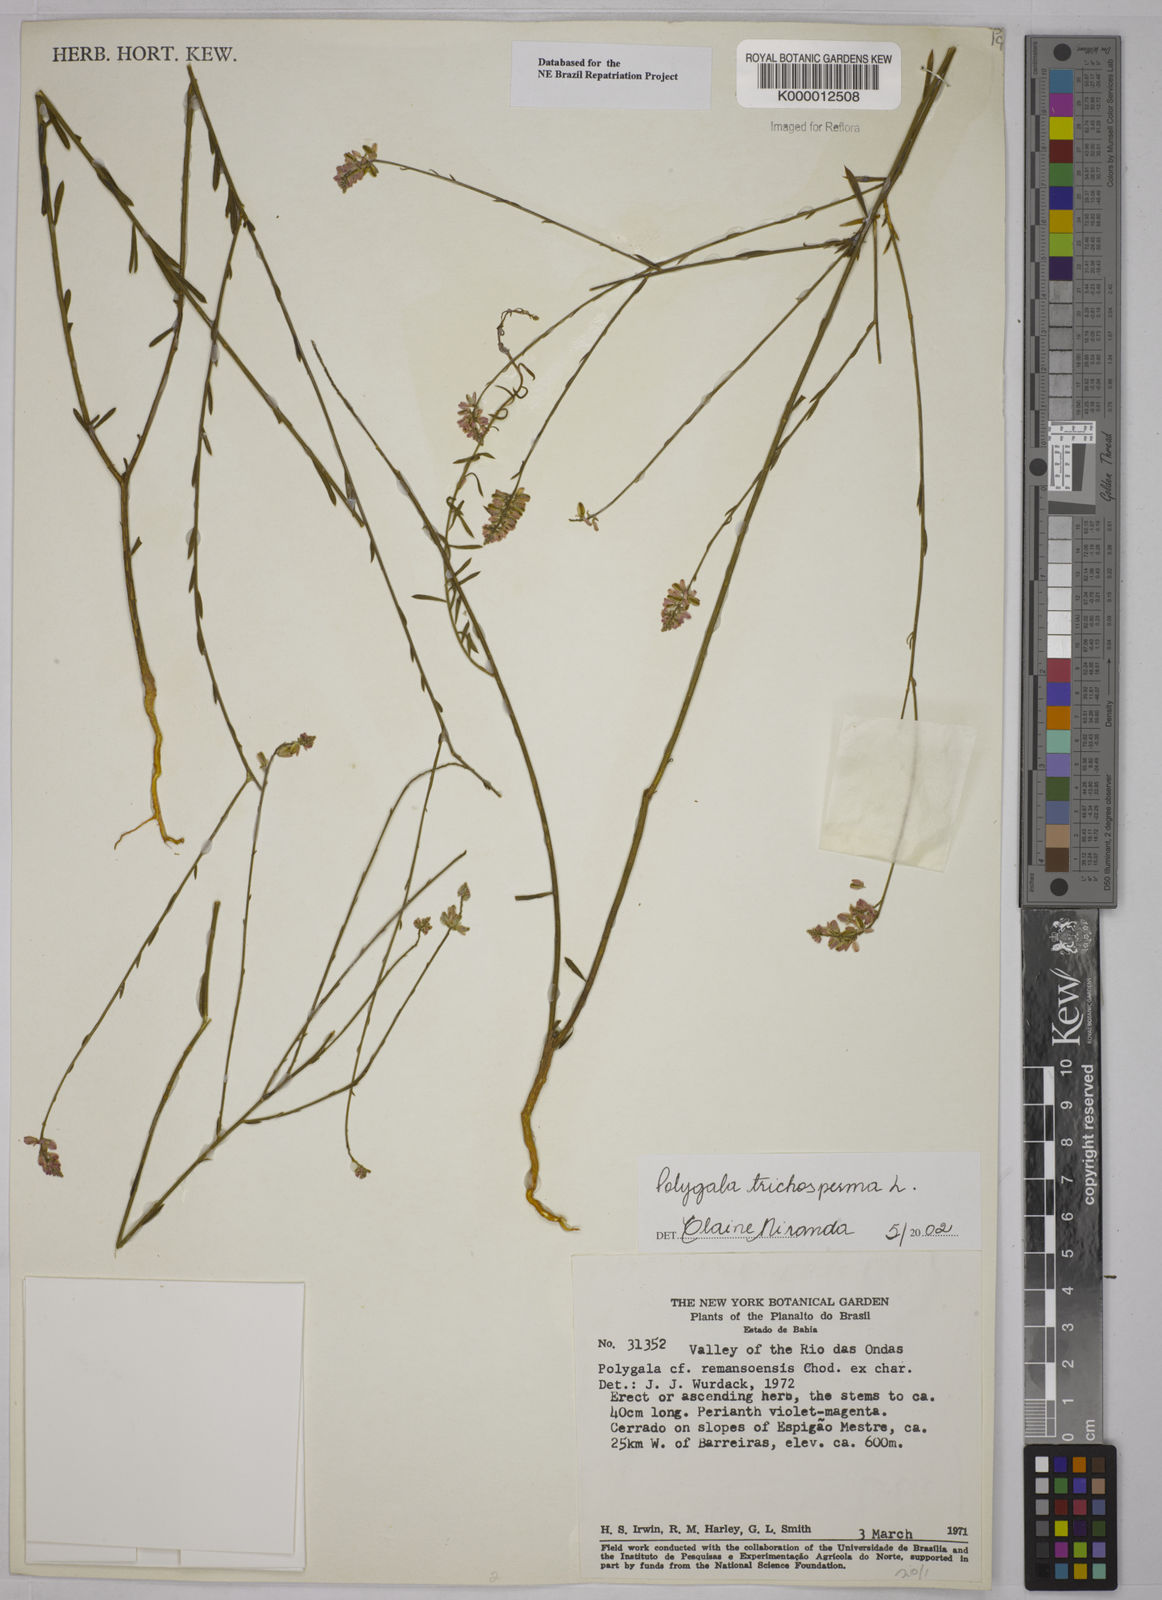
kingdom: Plantae
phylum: Tracheophyta
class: Magnoliopsida
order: Fabales
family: Polygalaceae
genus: Polygala
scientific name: Polygala
